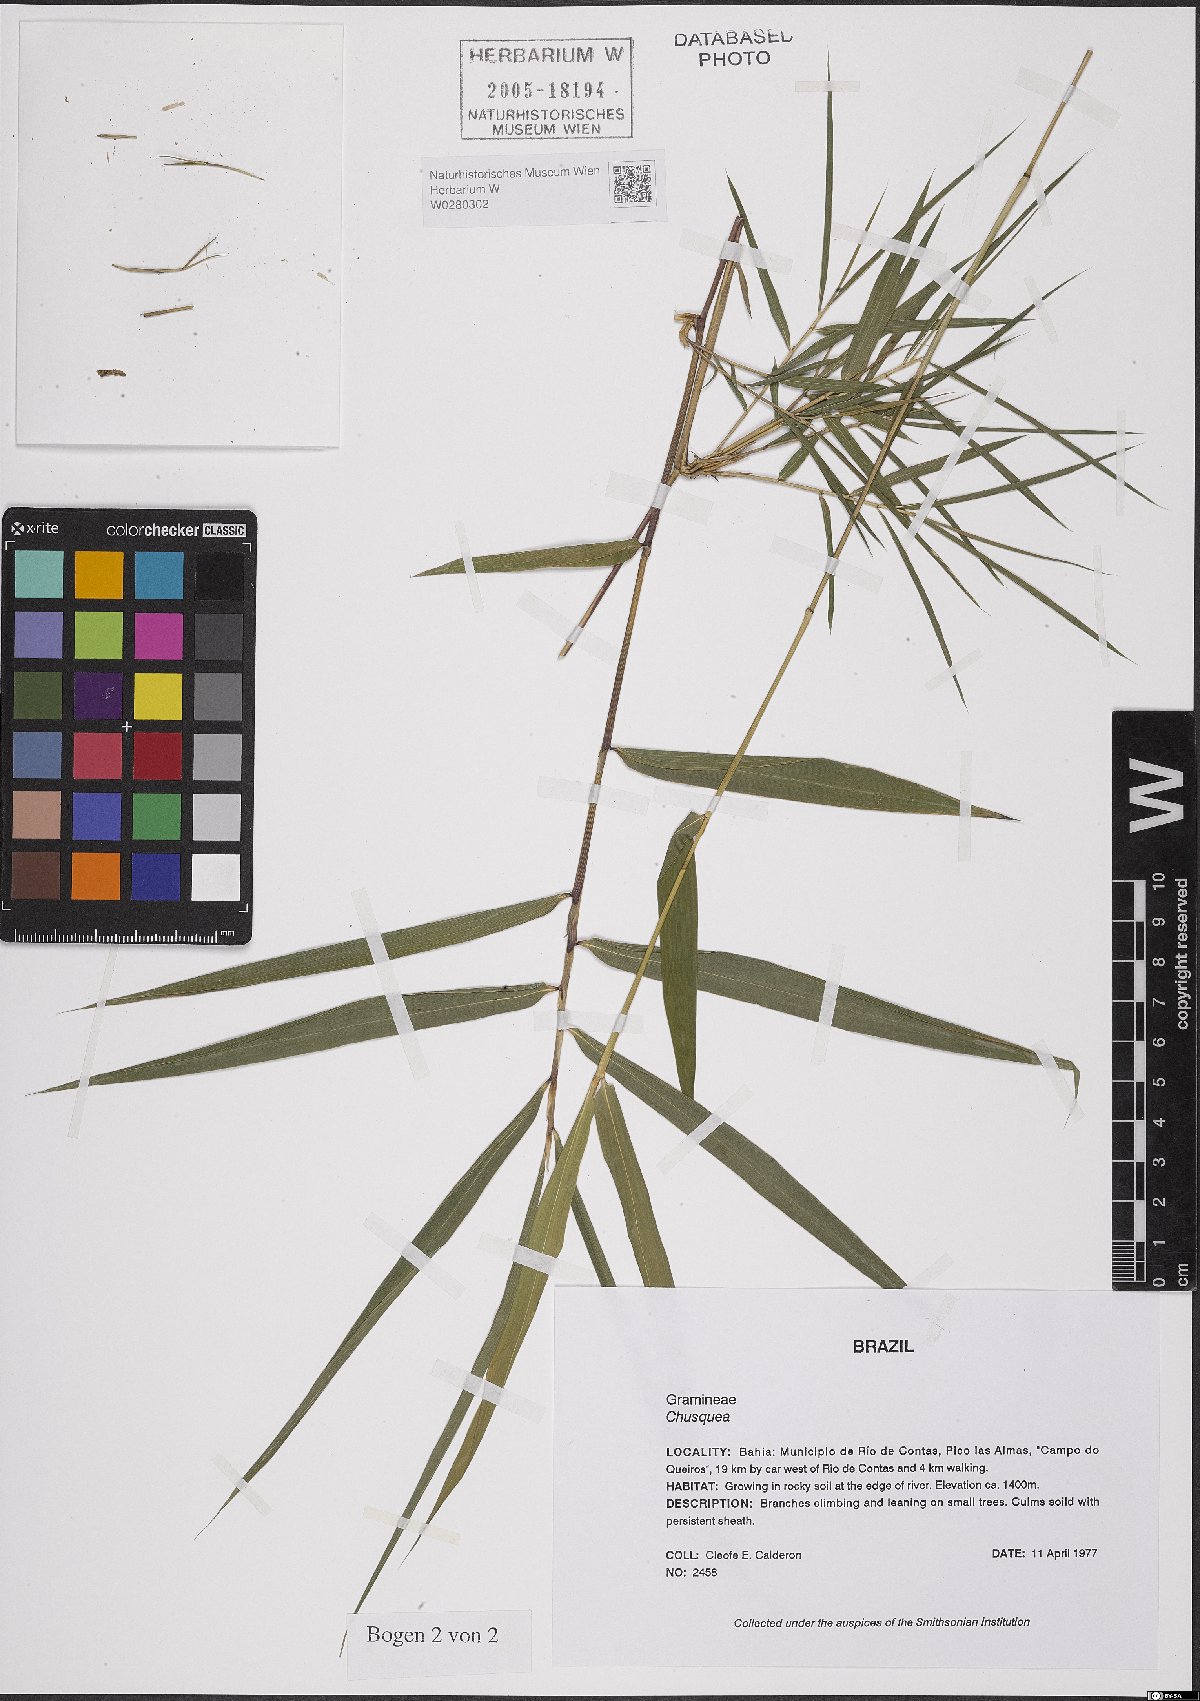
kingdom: Plantae
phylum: Tracheophyta
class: Liliopsida
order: Poales
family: Poaceae
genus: Chusquea
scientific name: Chusquea
